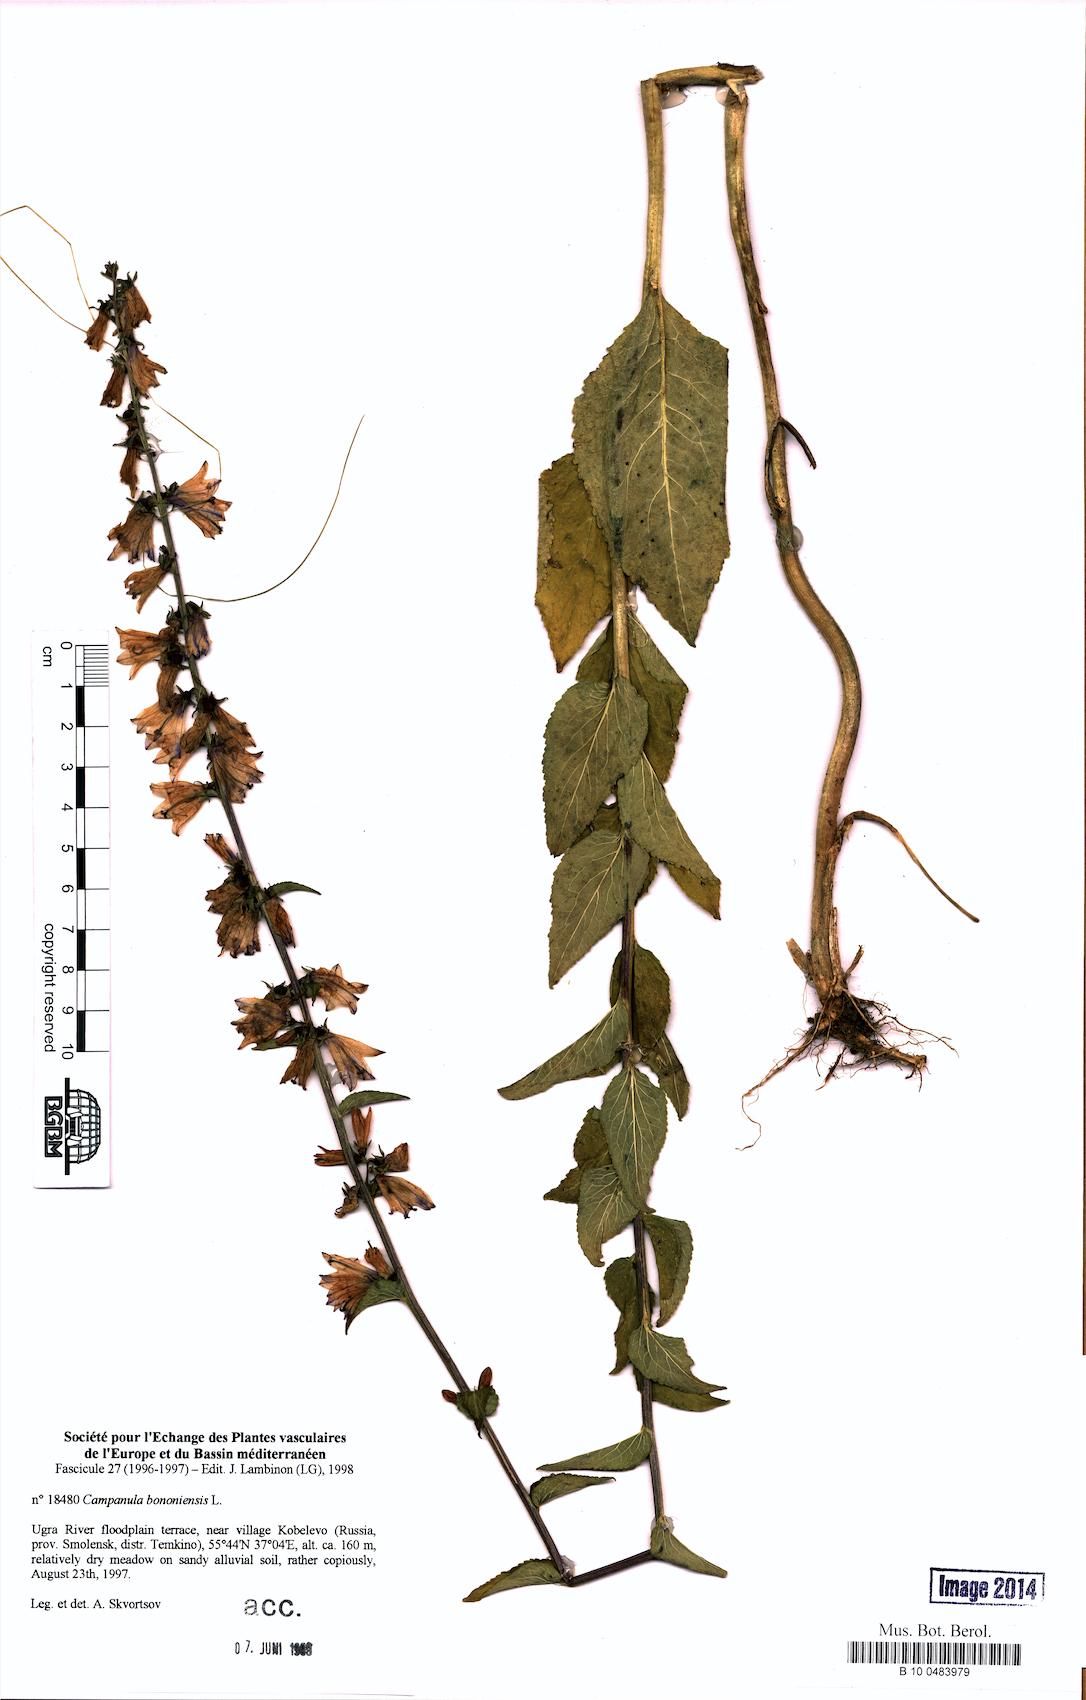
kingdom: Plantae
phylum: Tracheophyta
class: Magnoliopsida
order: Asterales
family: Campanulaceae
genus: Campanula
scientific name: Campanula bononiensis
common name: Pale bellflower
